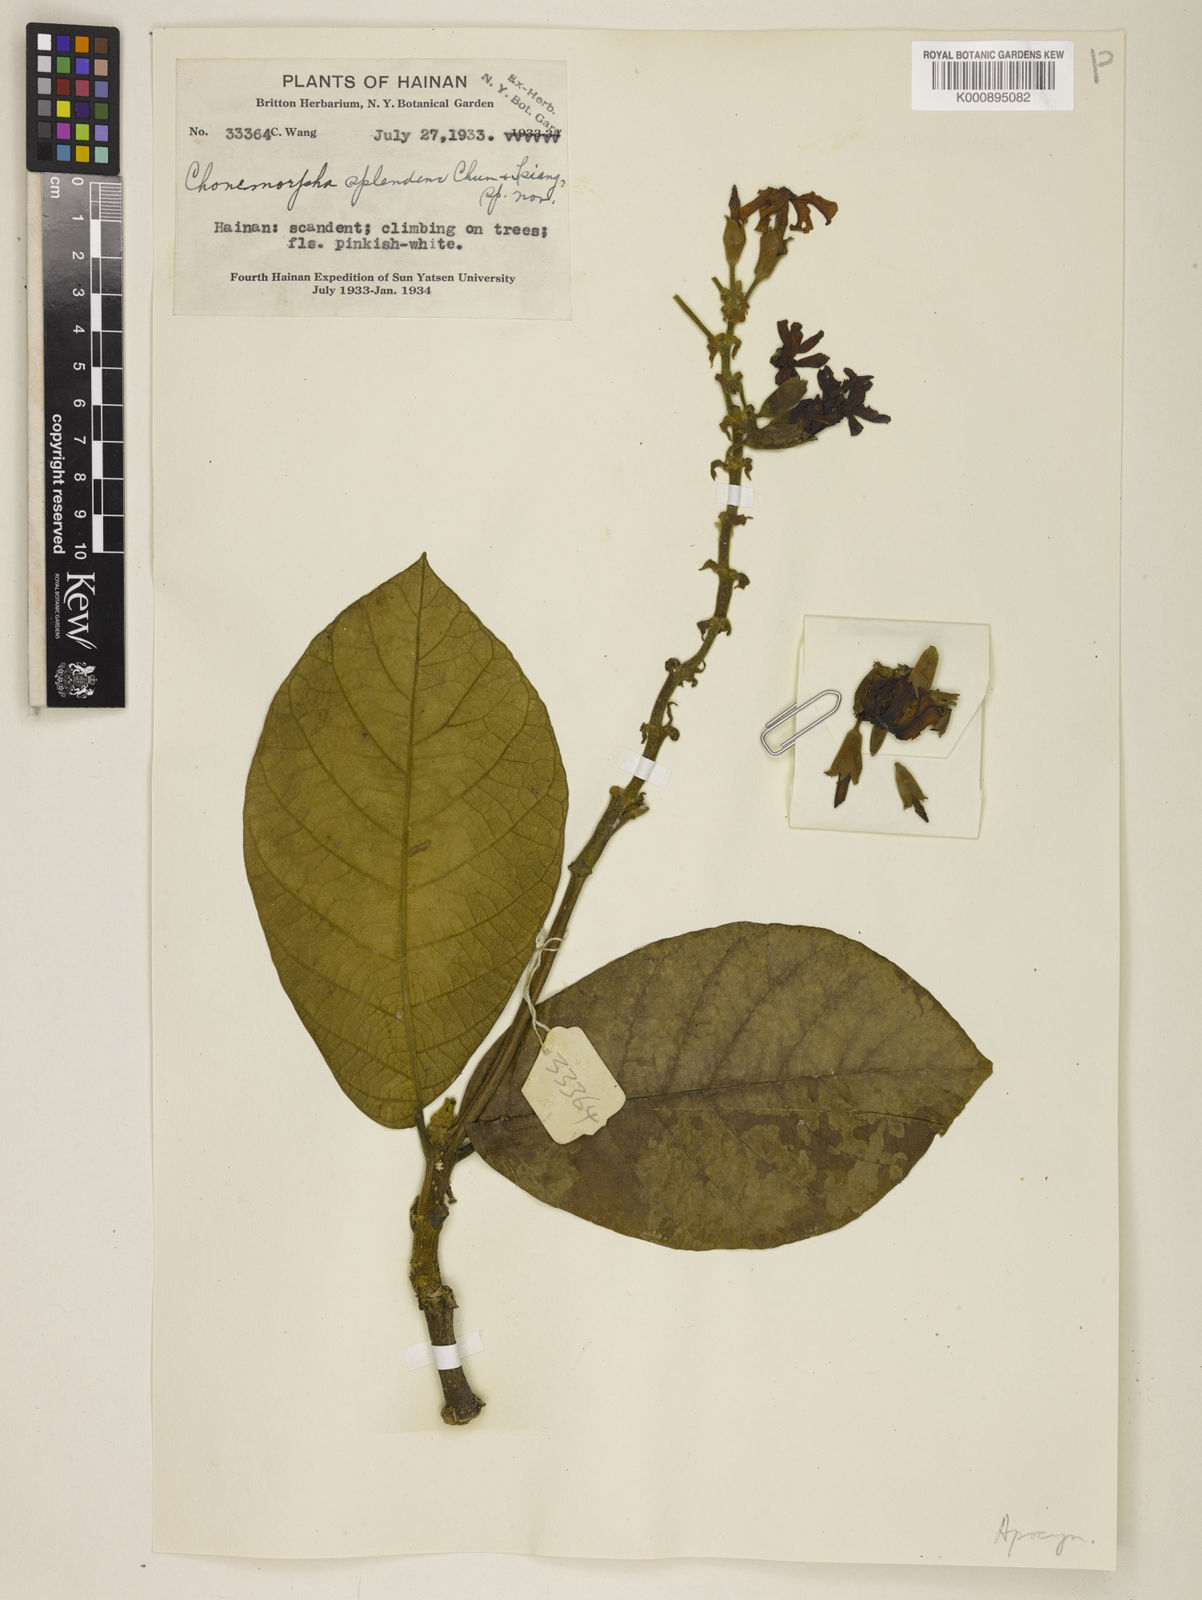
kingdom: Plantae
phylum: Tracheophyta
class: Magnoliopsida
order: Gentianales
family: Apocynaceae
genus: Chonemorpha
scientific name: Chonemorpha splendens
